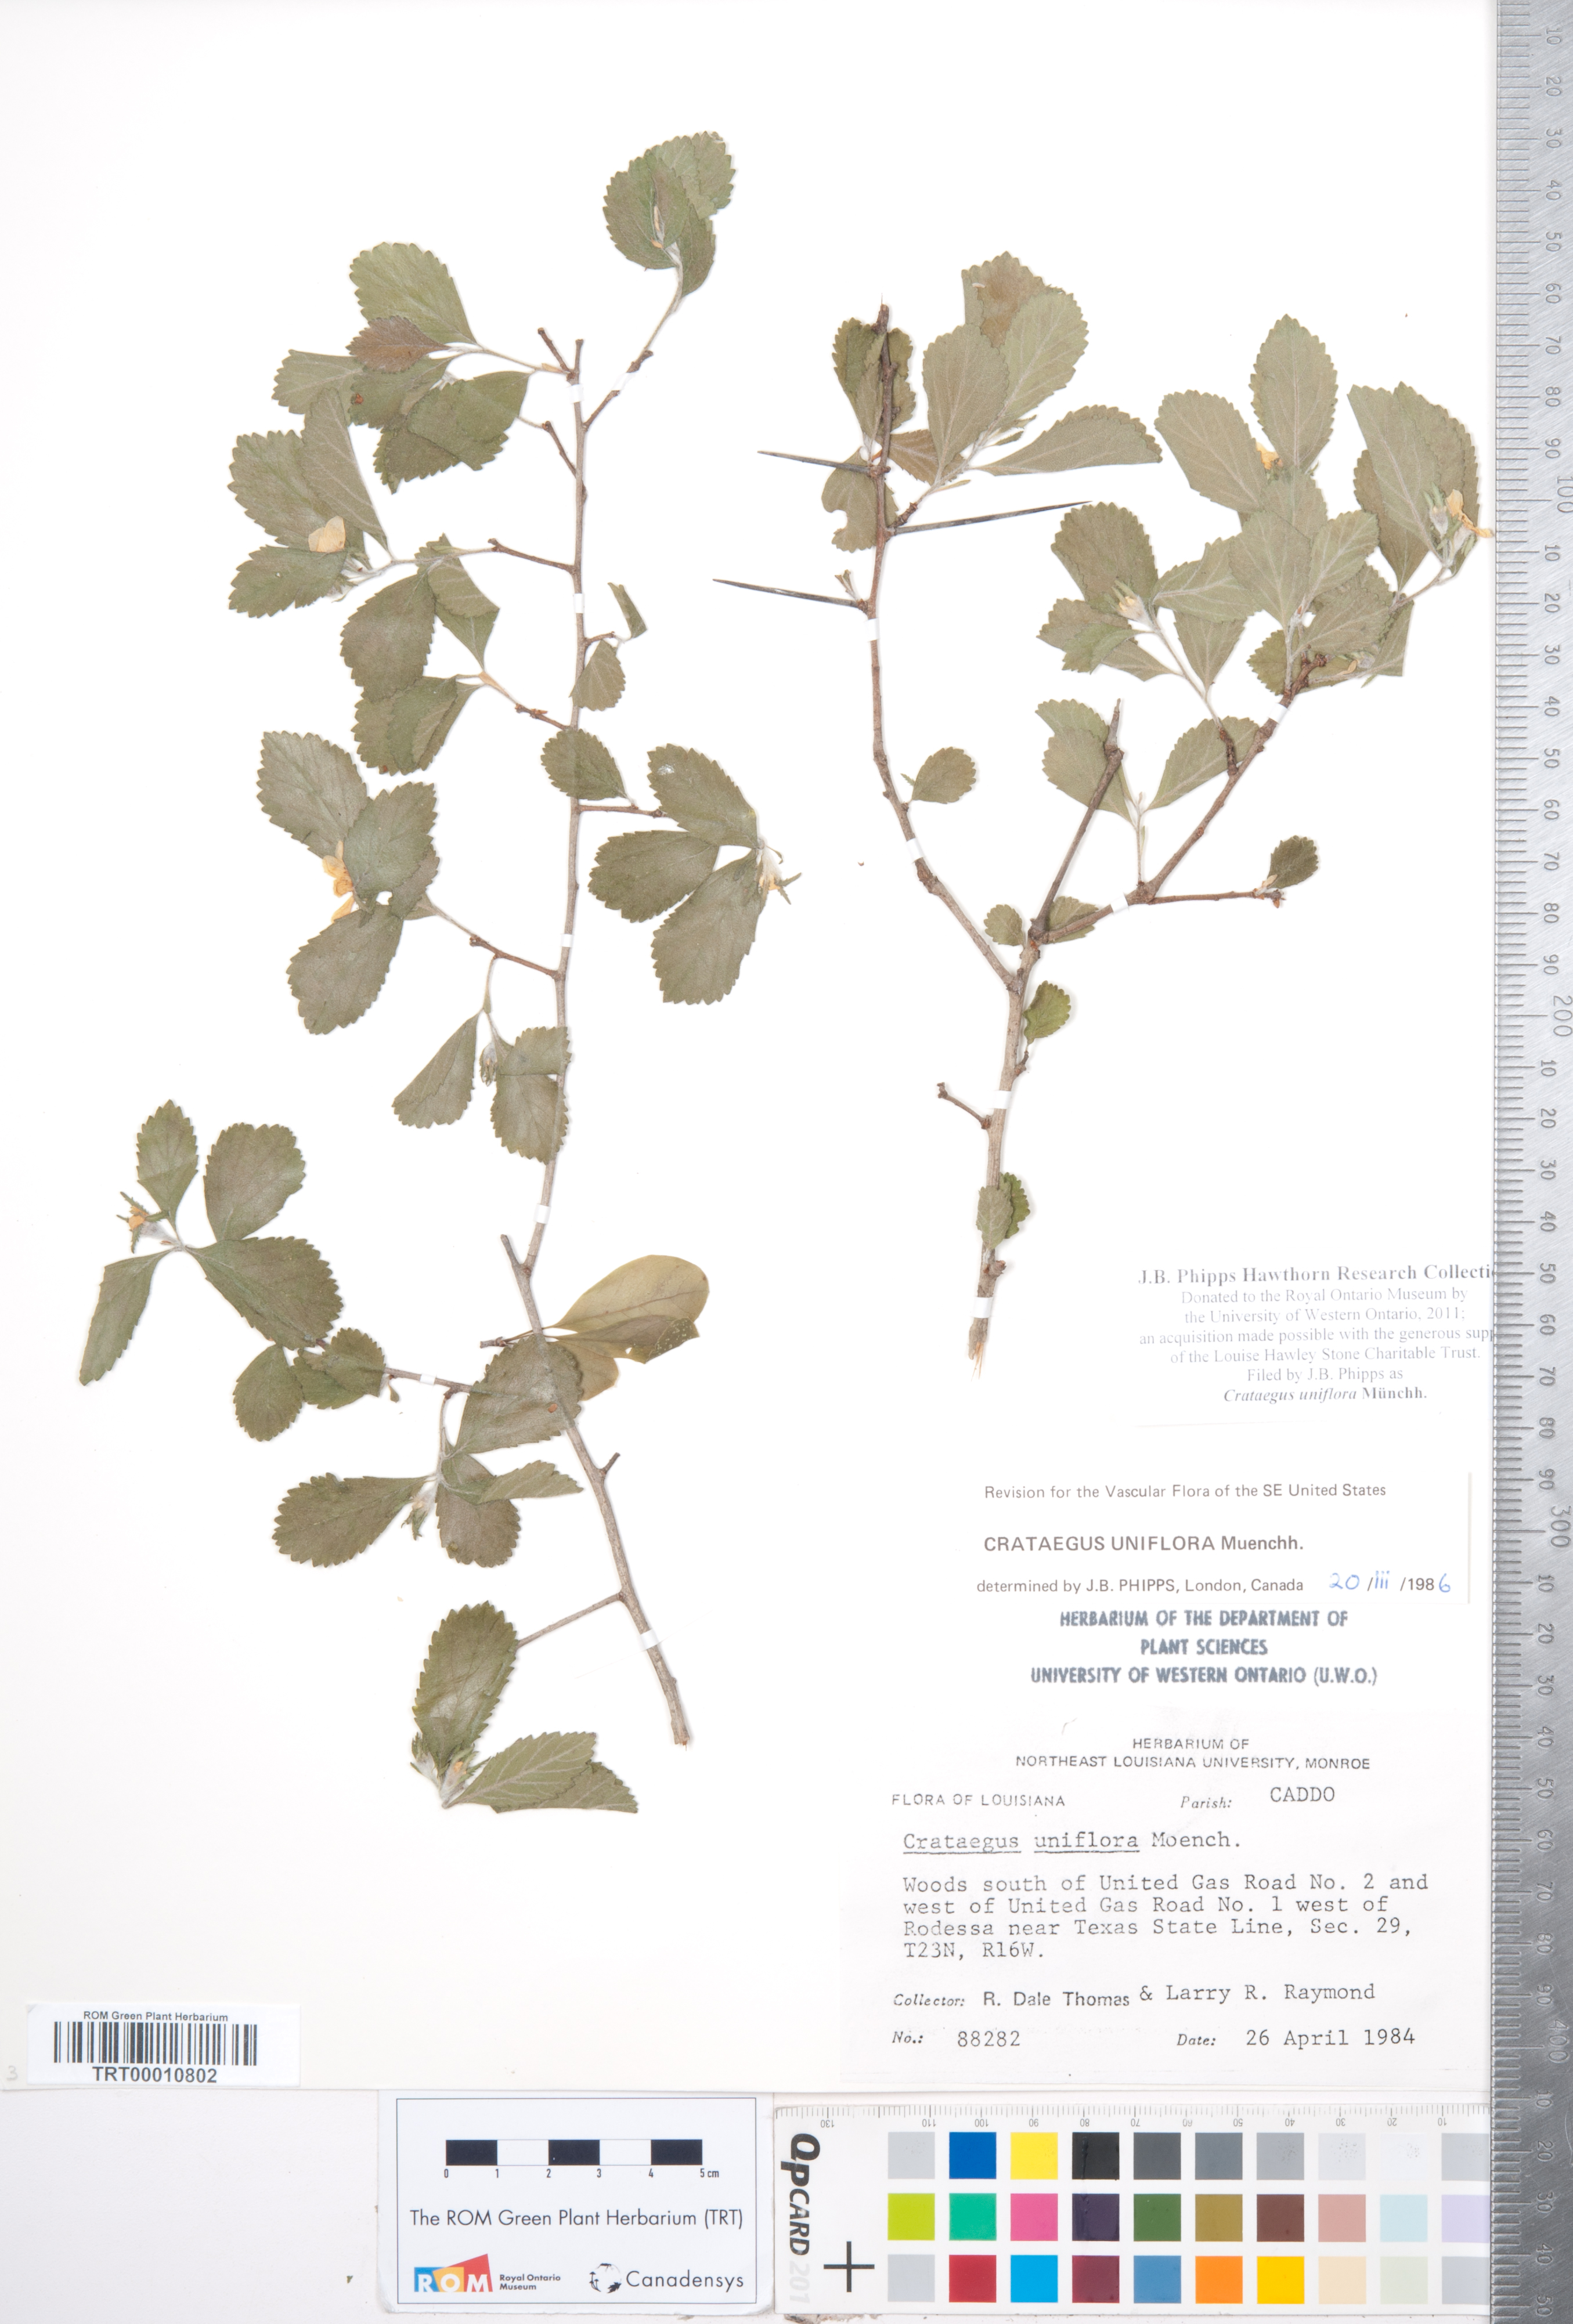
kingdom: Plantae
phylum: Tracheophyta
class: Magnoliopsida
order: Rosales
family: Rosaceae
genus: Crataegus
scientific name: Crataegus uniflora
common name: One-flower hawthorn
